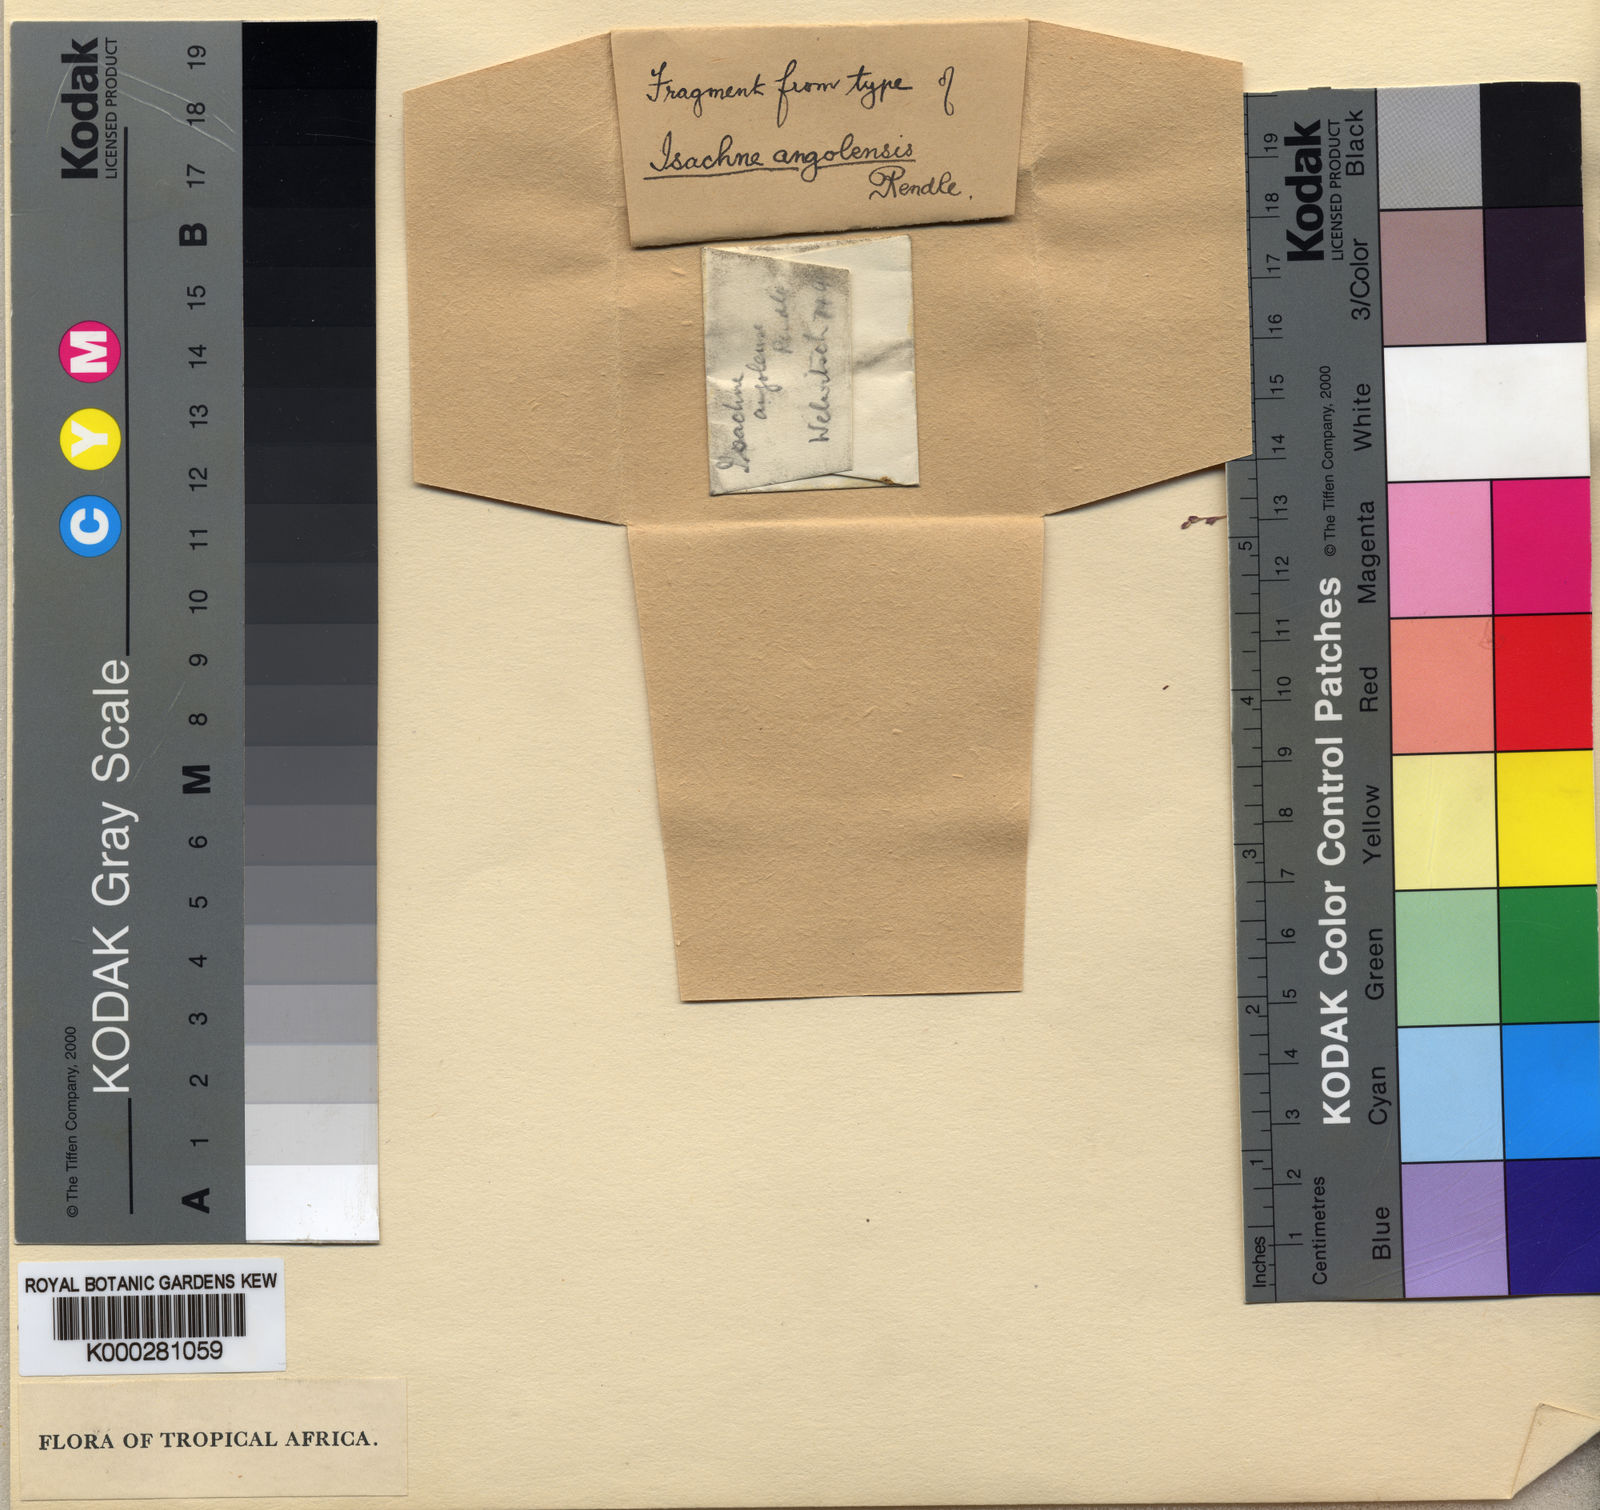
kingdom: Plantae
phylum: Tracheophyta
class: Liliopsida
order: Poales
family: Poaceae
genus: Isachne
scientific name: Isachne angolensis
